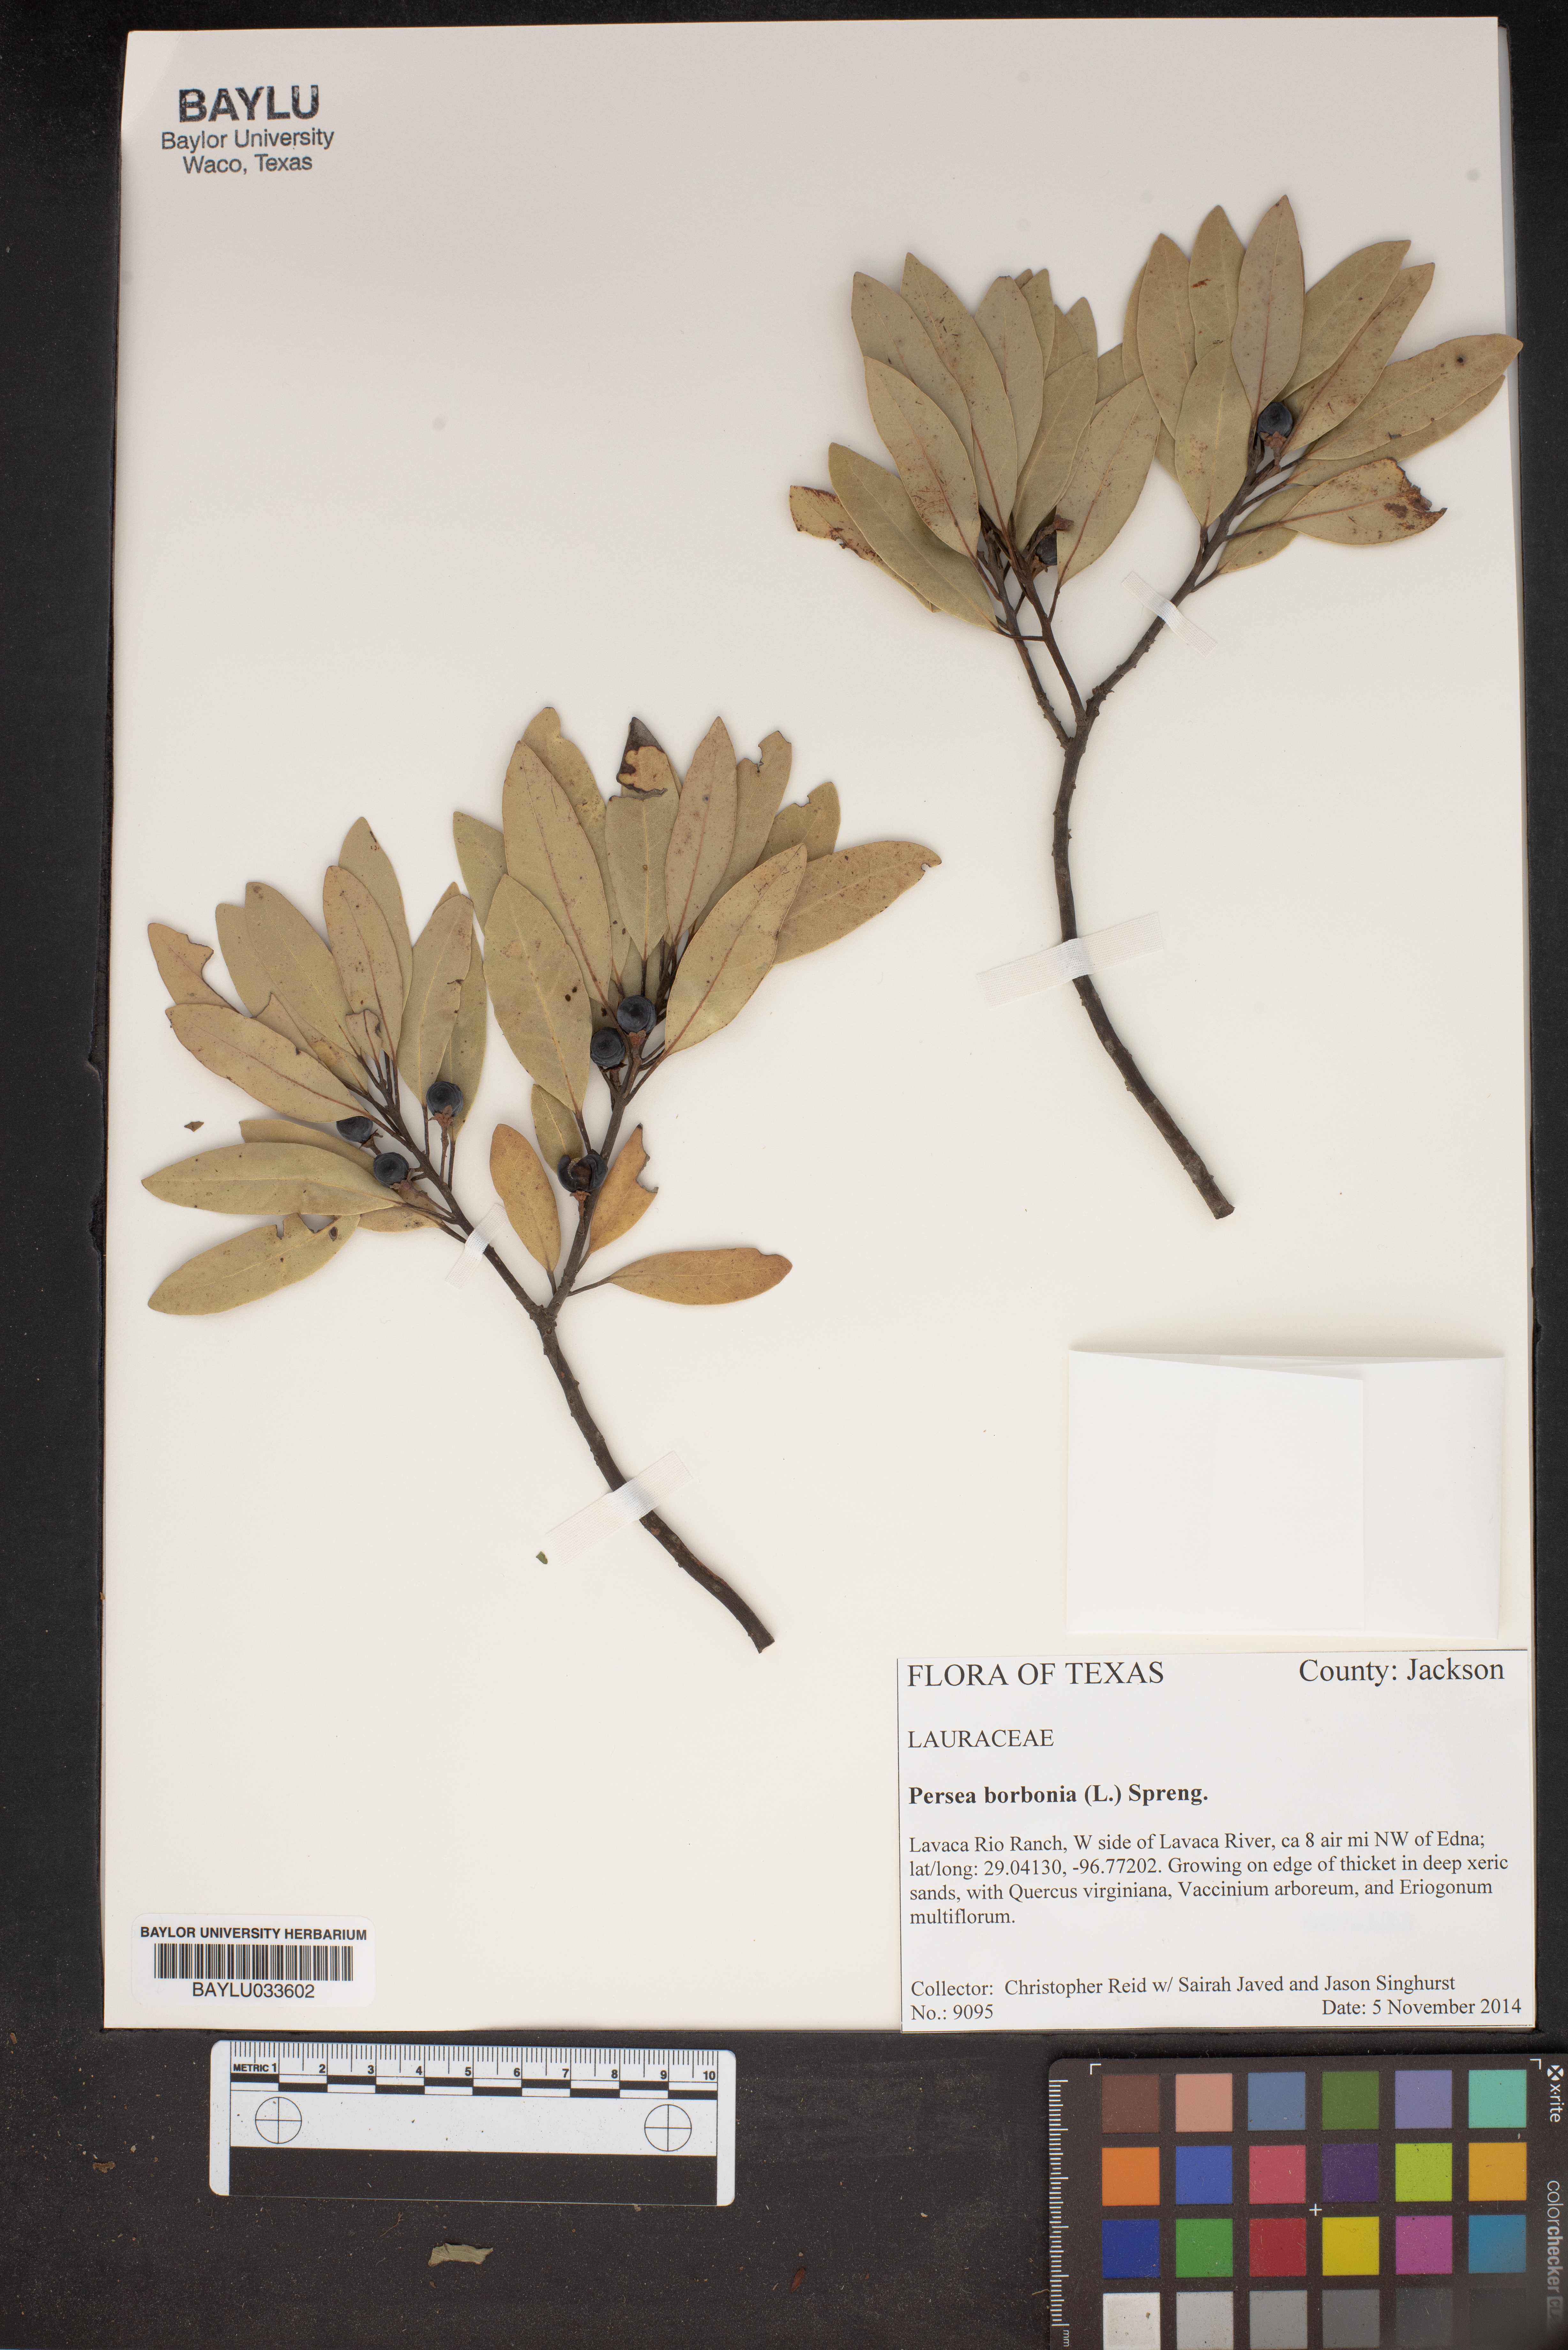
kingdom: Plantae
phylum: Tracheophyta
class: Magnoliopsida
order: Laurales
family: Lauraceae
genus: Persea
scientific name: Persea borbonia
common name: Redbay
